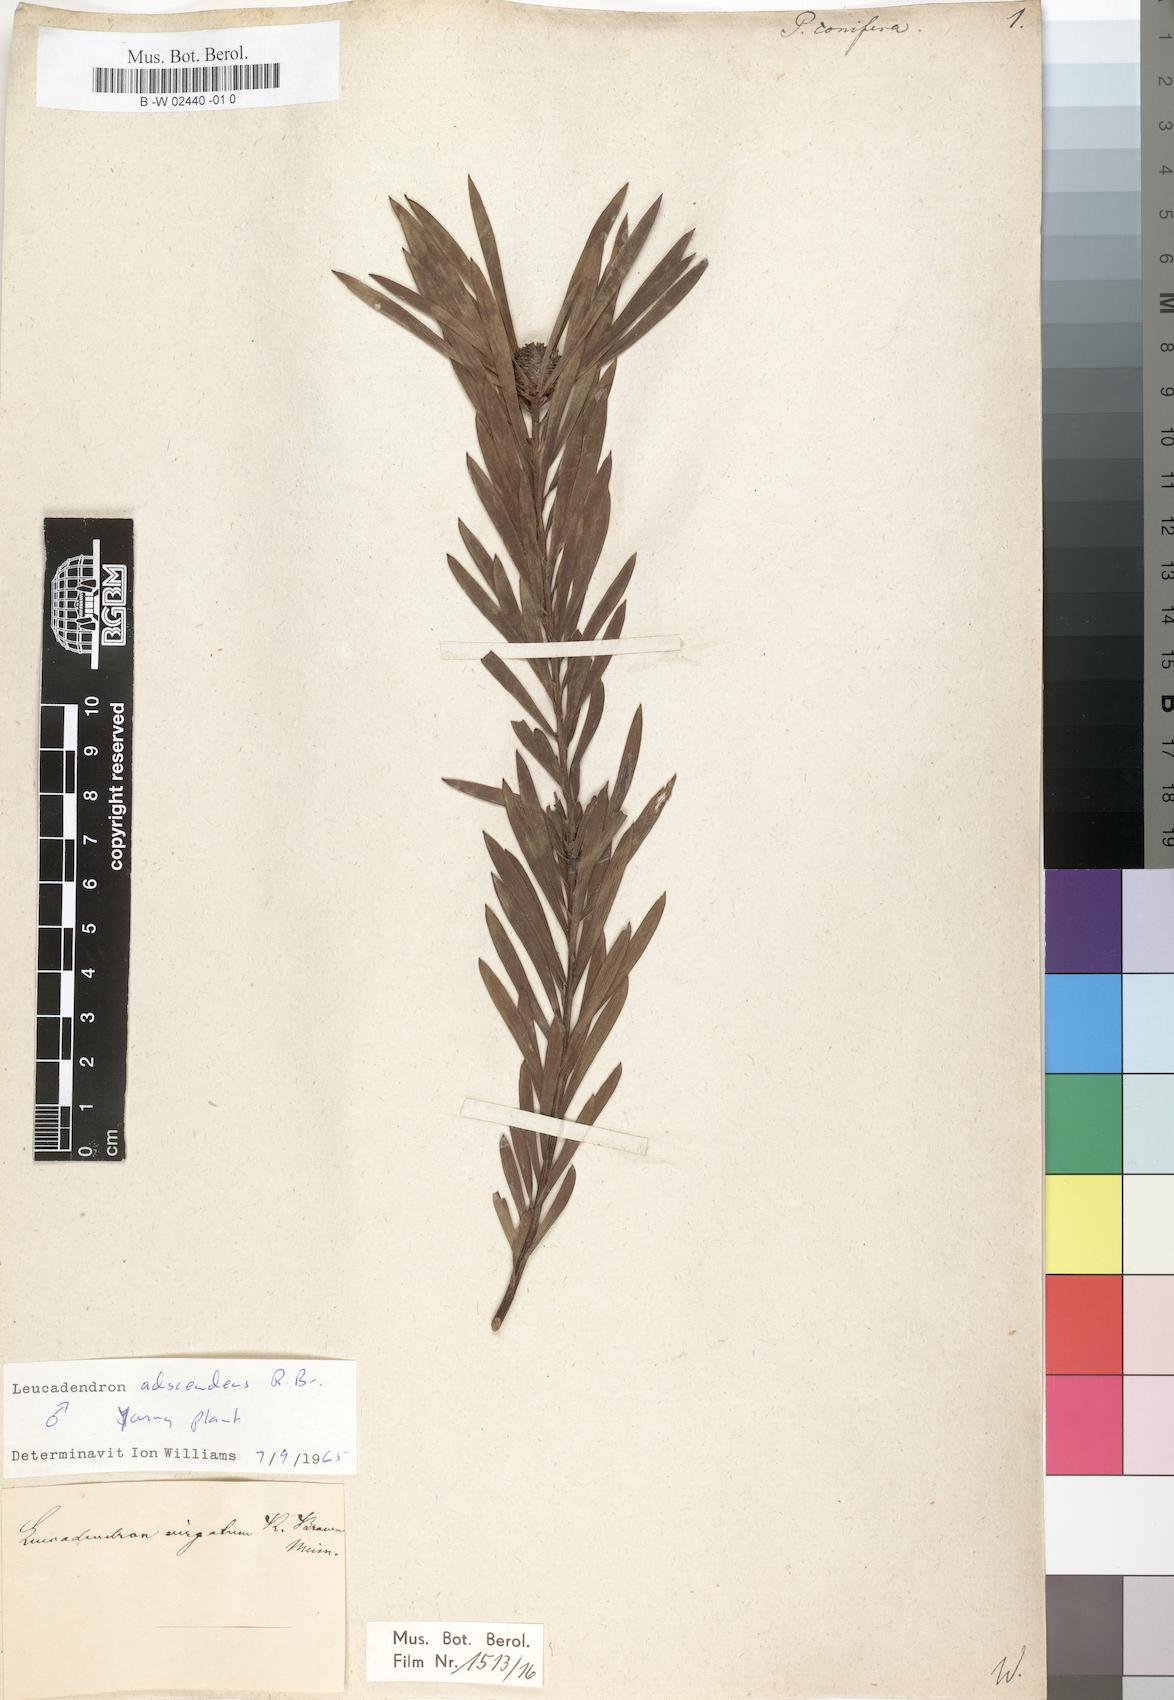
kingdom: Plantae
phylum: Tracheophyta
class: Magnoliopsida
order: Proteales
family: Proteaceae
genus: Leucadendron
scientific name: Leucadendron
